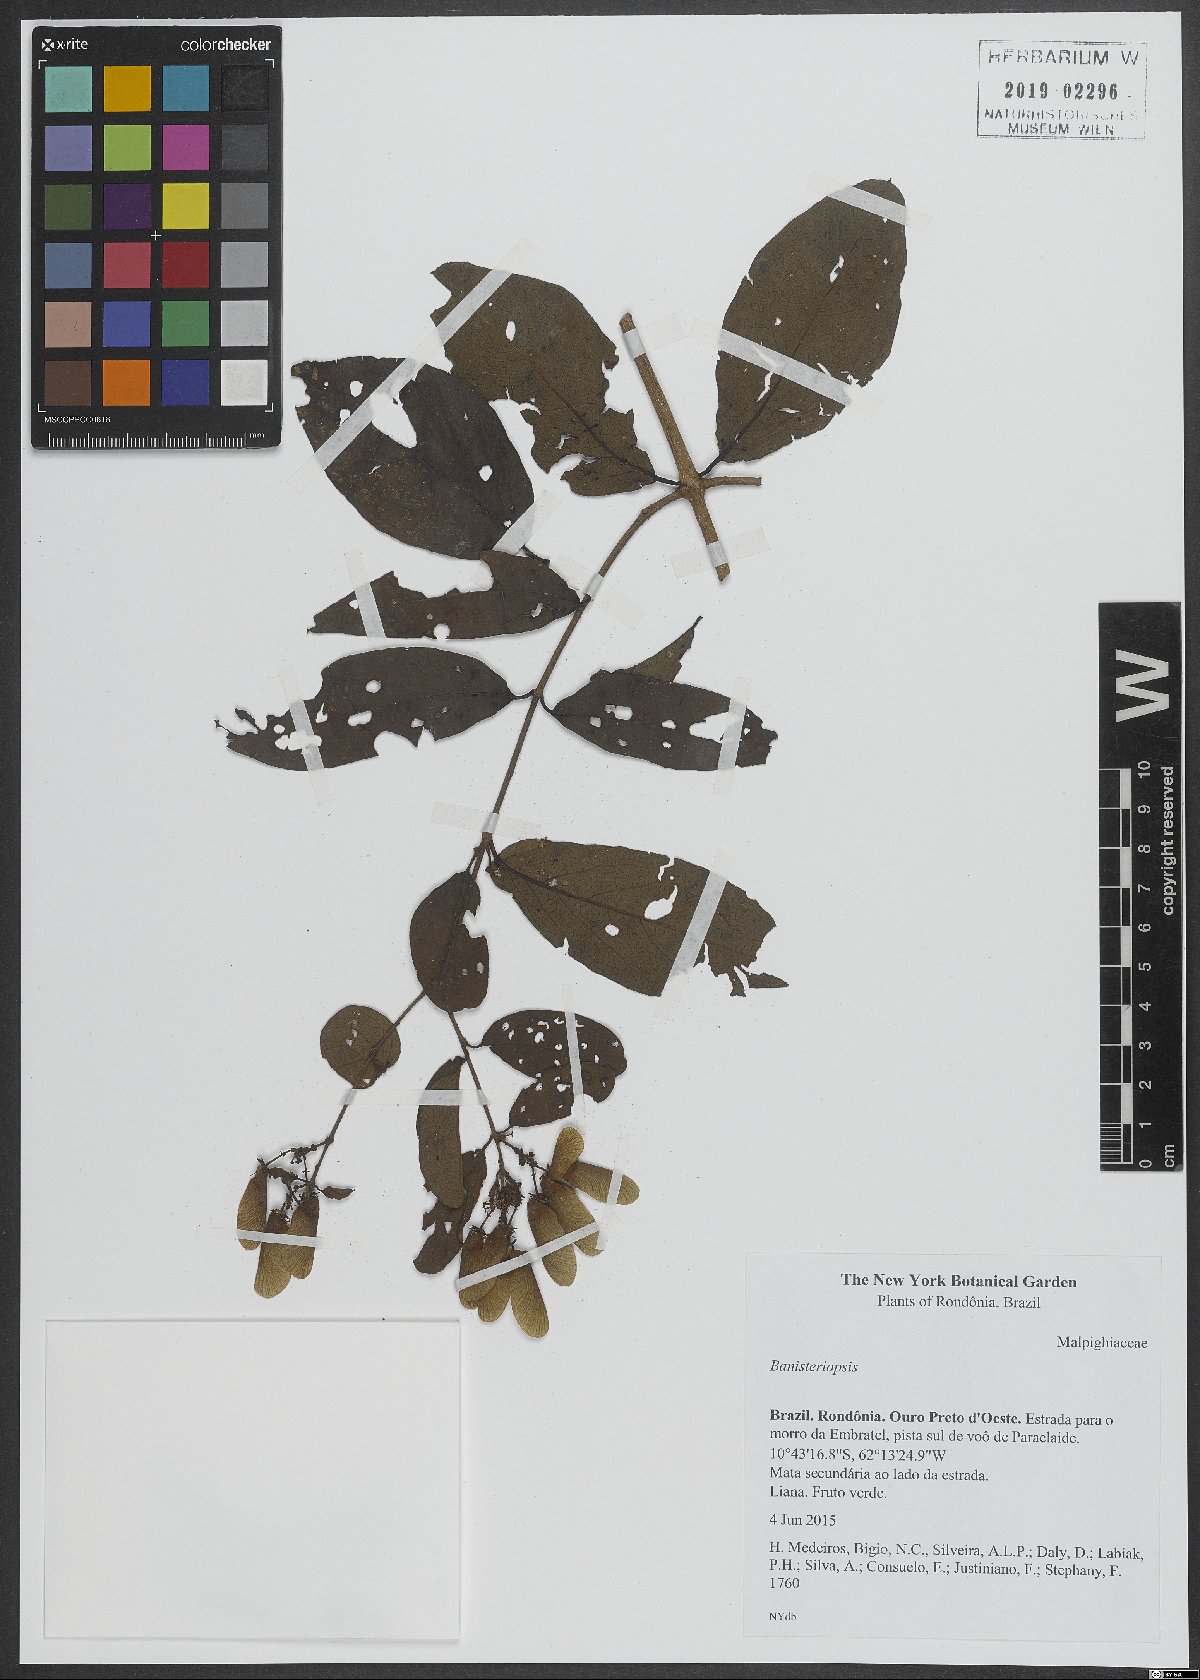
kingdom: Plantae
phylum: Tracheophyta
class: Magnoliopsida
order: Malpighiales
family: Malpighiaceae
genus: Banisteriopsis
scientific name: Banisteriopsis
